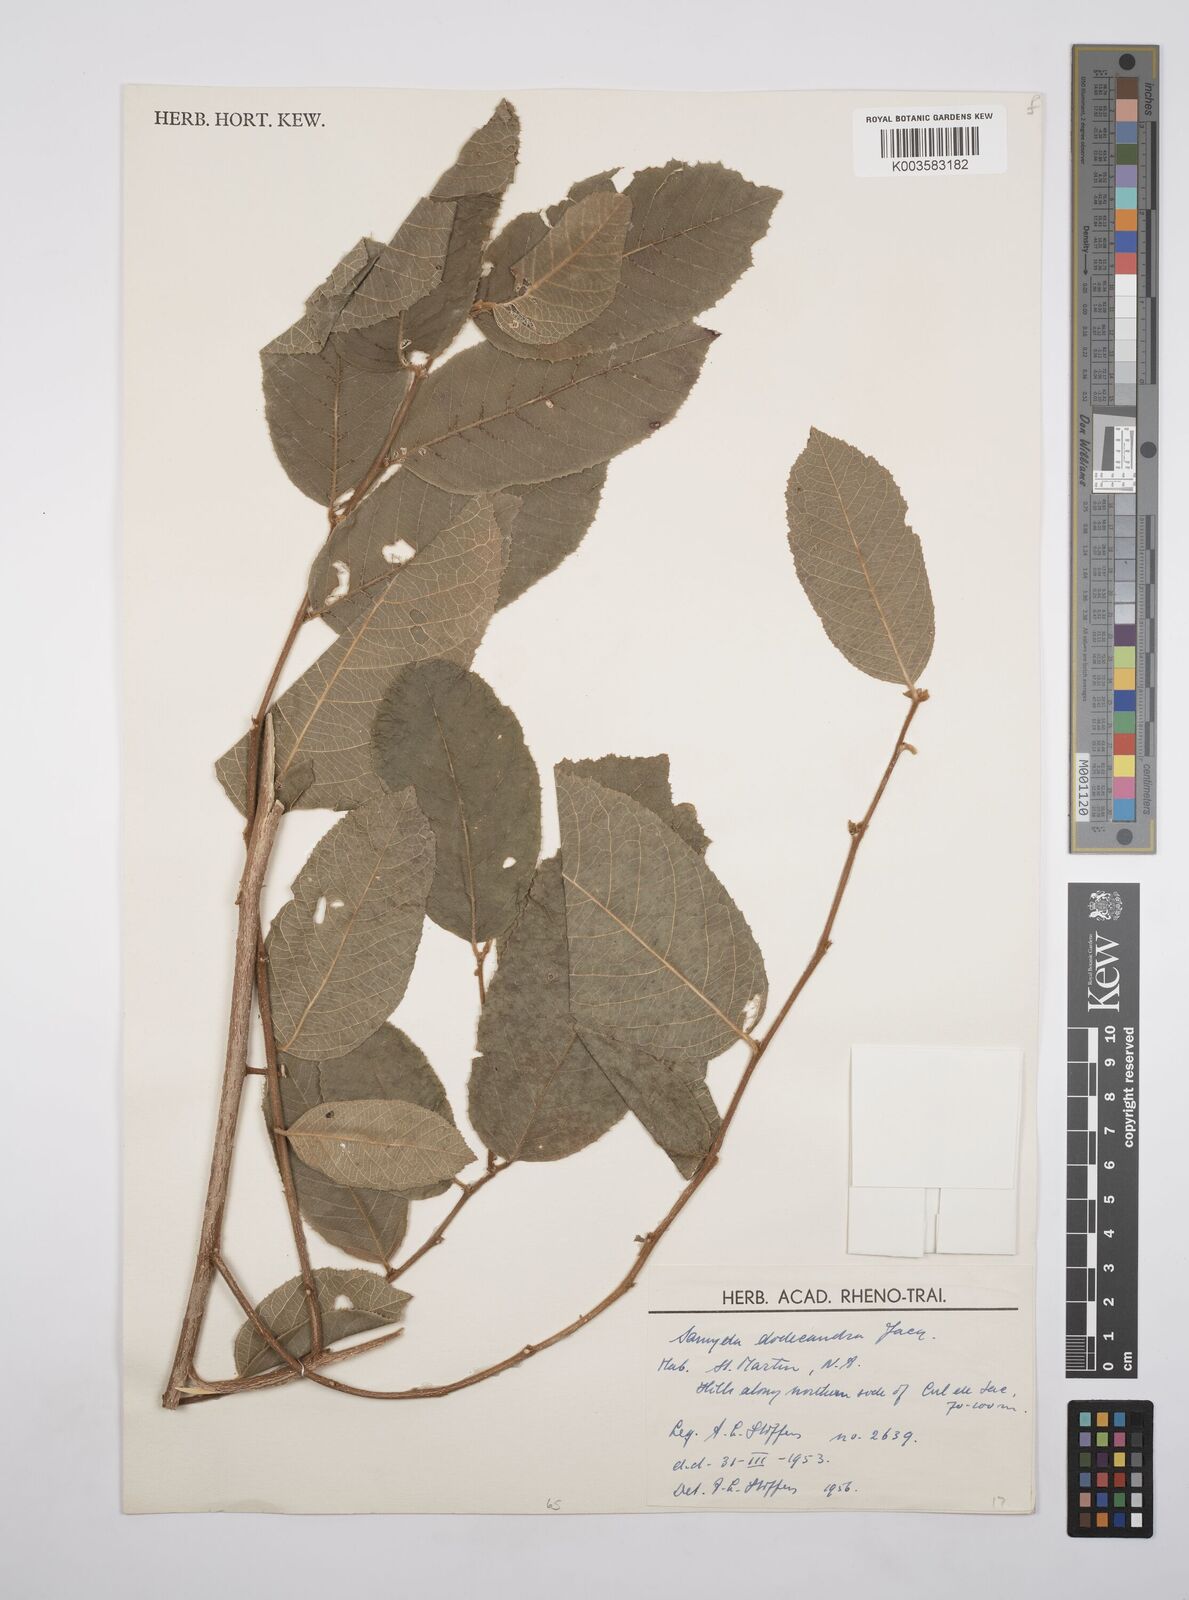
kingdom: Plantae
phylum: Tracheophyta
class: Magnoliopsida
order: Malpighiales
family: Salicaceae
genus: Casearia
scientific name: Casearia dodecandra
